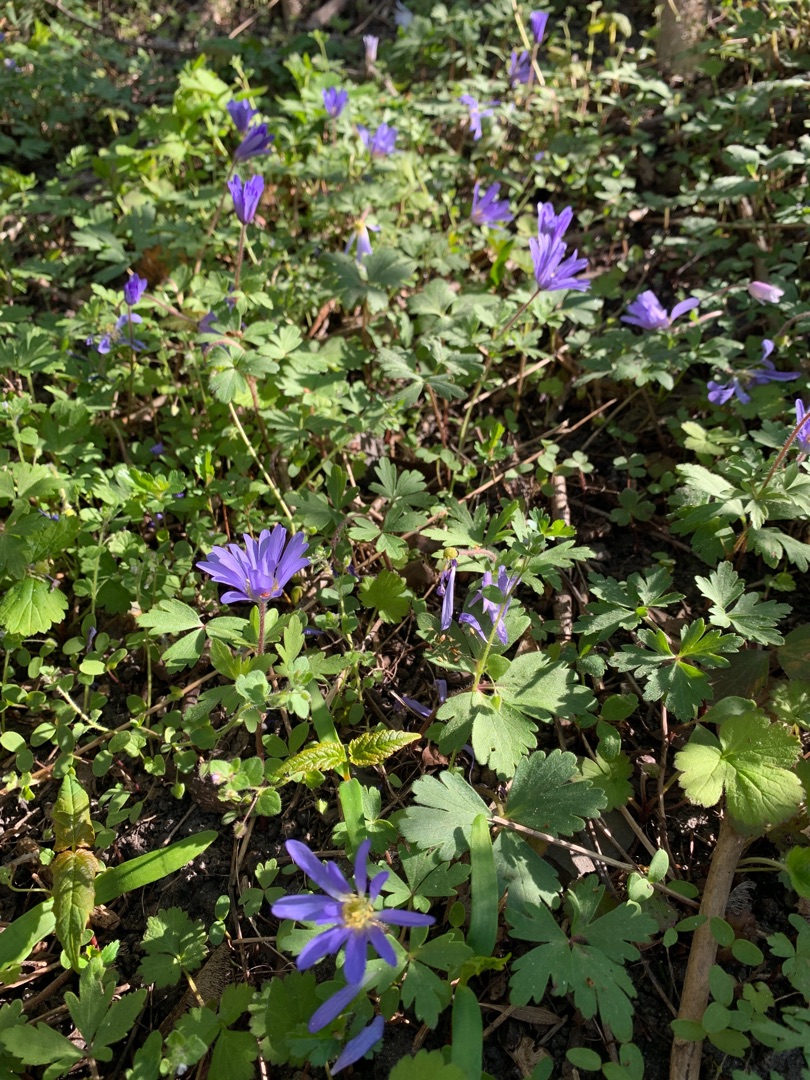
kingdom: Plantae
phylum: Tracheophyta
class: Magnoliopsida
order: Ranunculales
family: Ranunculaceae
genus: Anemone
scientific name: Anemone blanda
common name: Balkan-anemone
